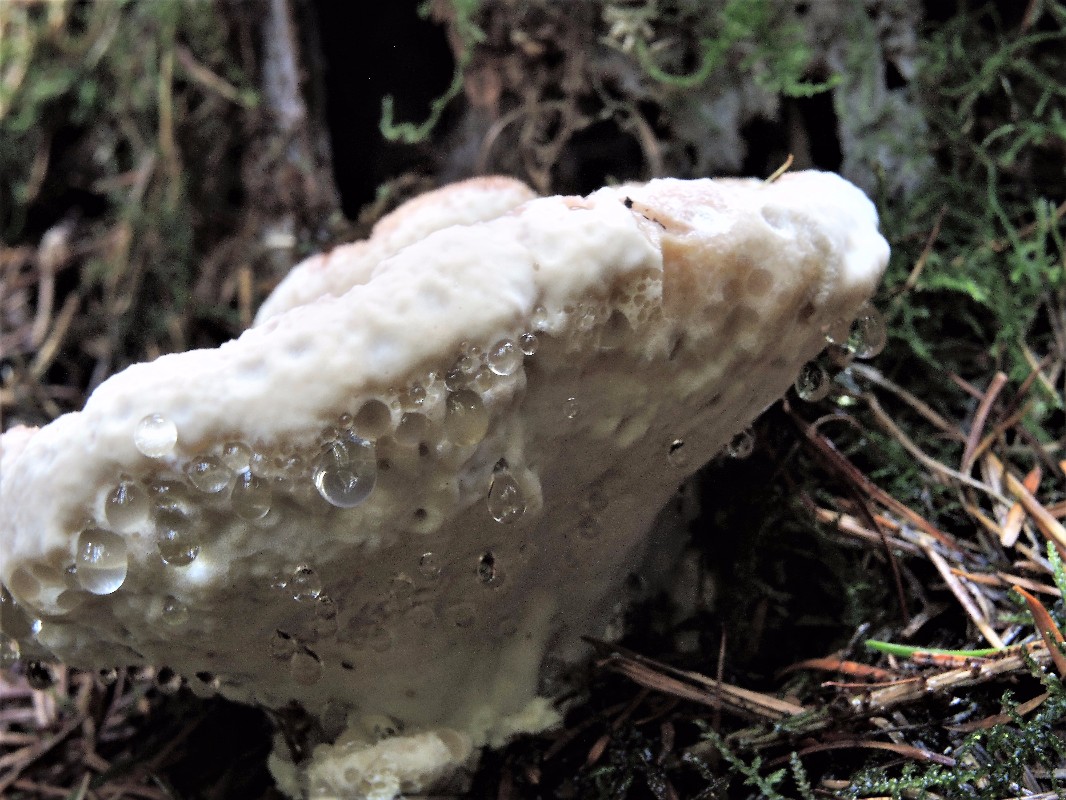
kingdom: Fungi
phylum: Basidiomycota
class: Agaricomycetes
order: Polyporales
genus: Calcipostia
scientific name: Calcipostia guttulata
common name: dråbe-kødporesvamp
